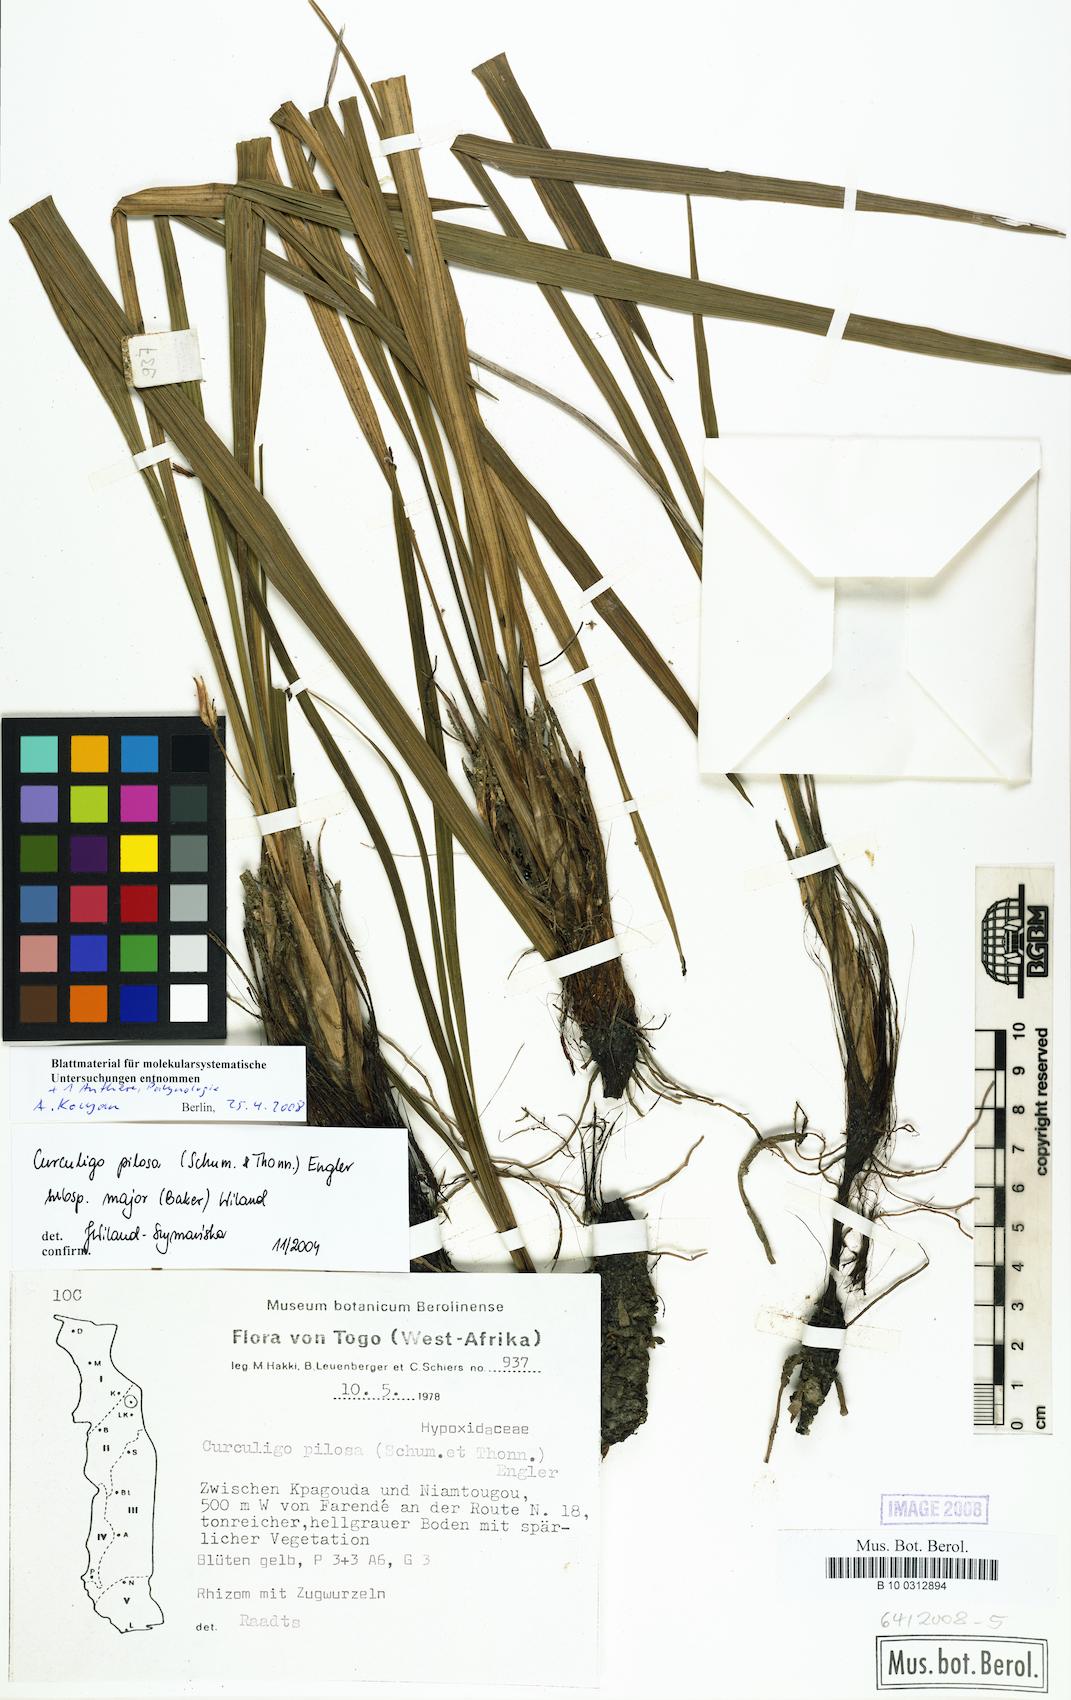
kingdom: Plantae
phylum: Tracheophyta
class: Liliopsida
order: Asparagales
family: Hypoxidaceae
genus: Curculigo
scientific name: Curculigo pilosa
